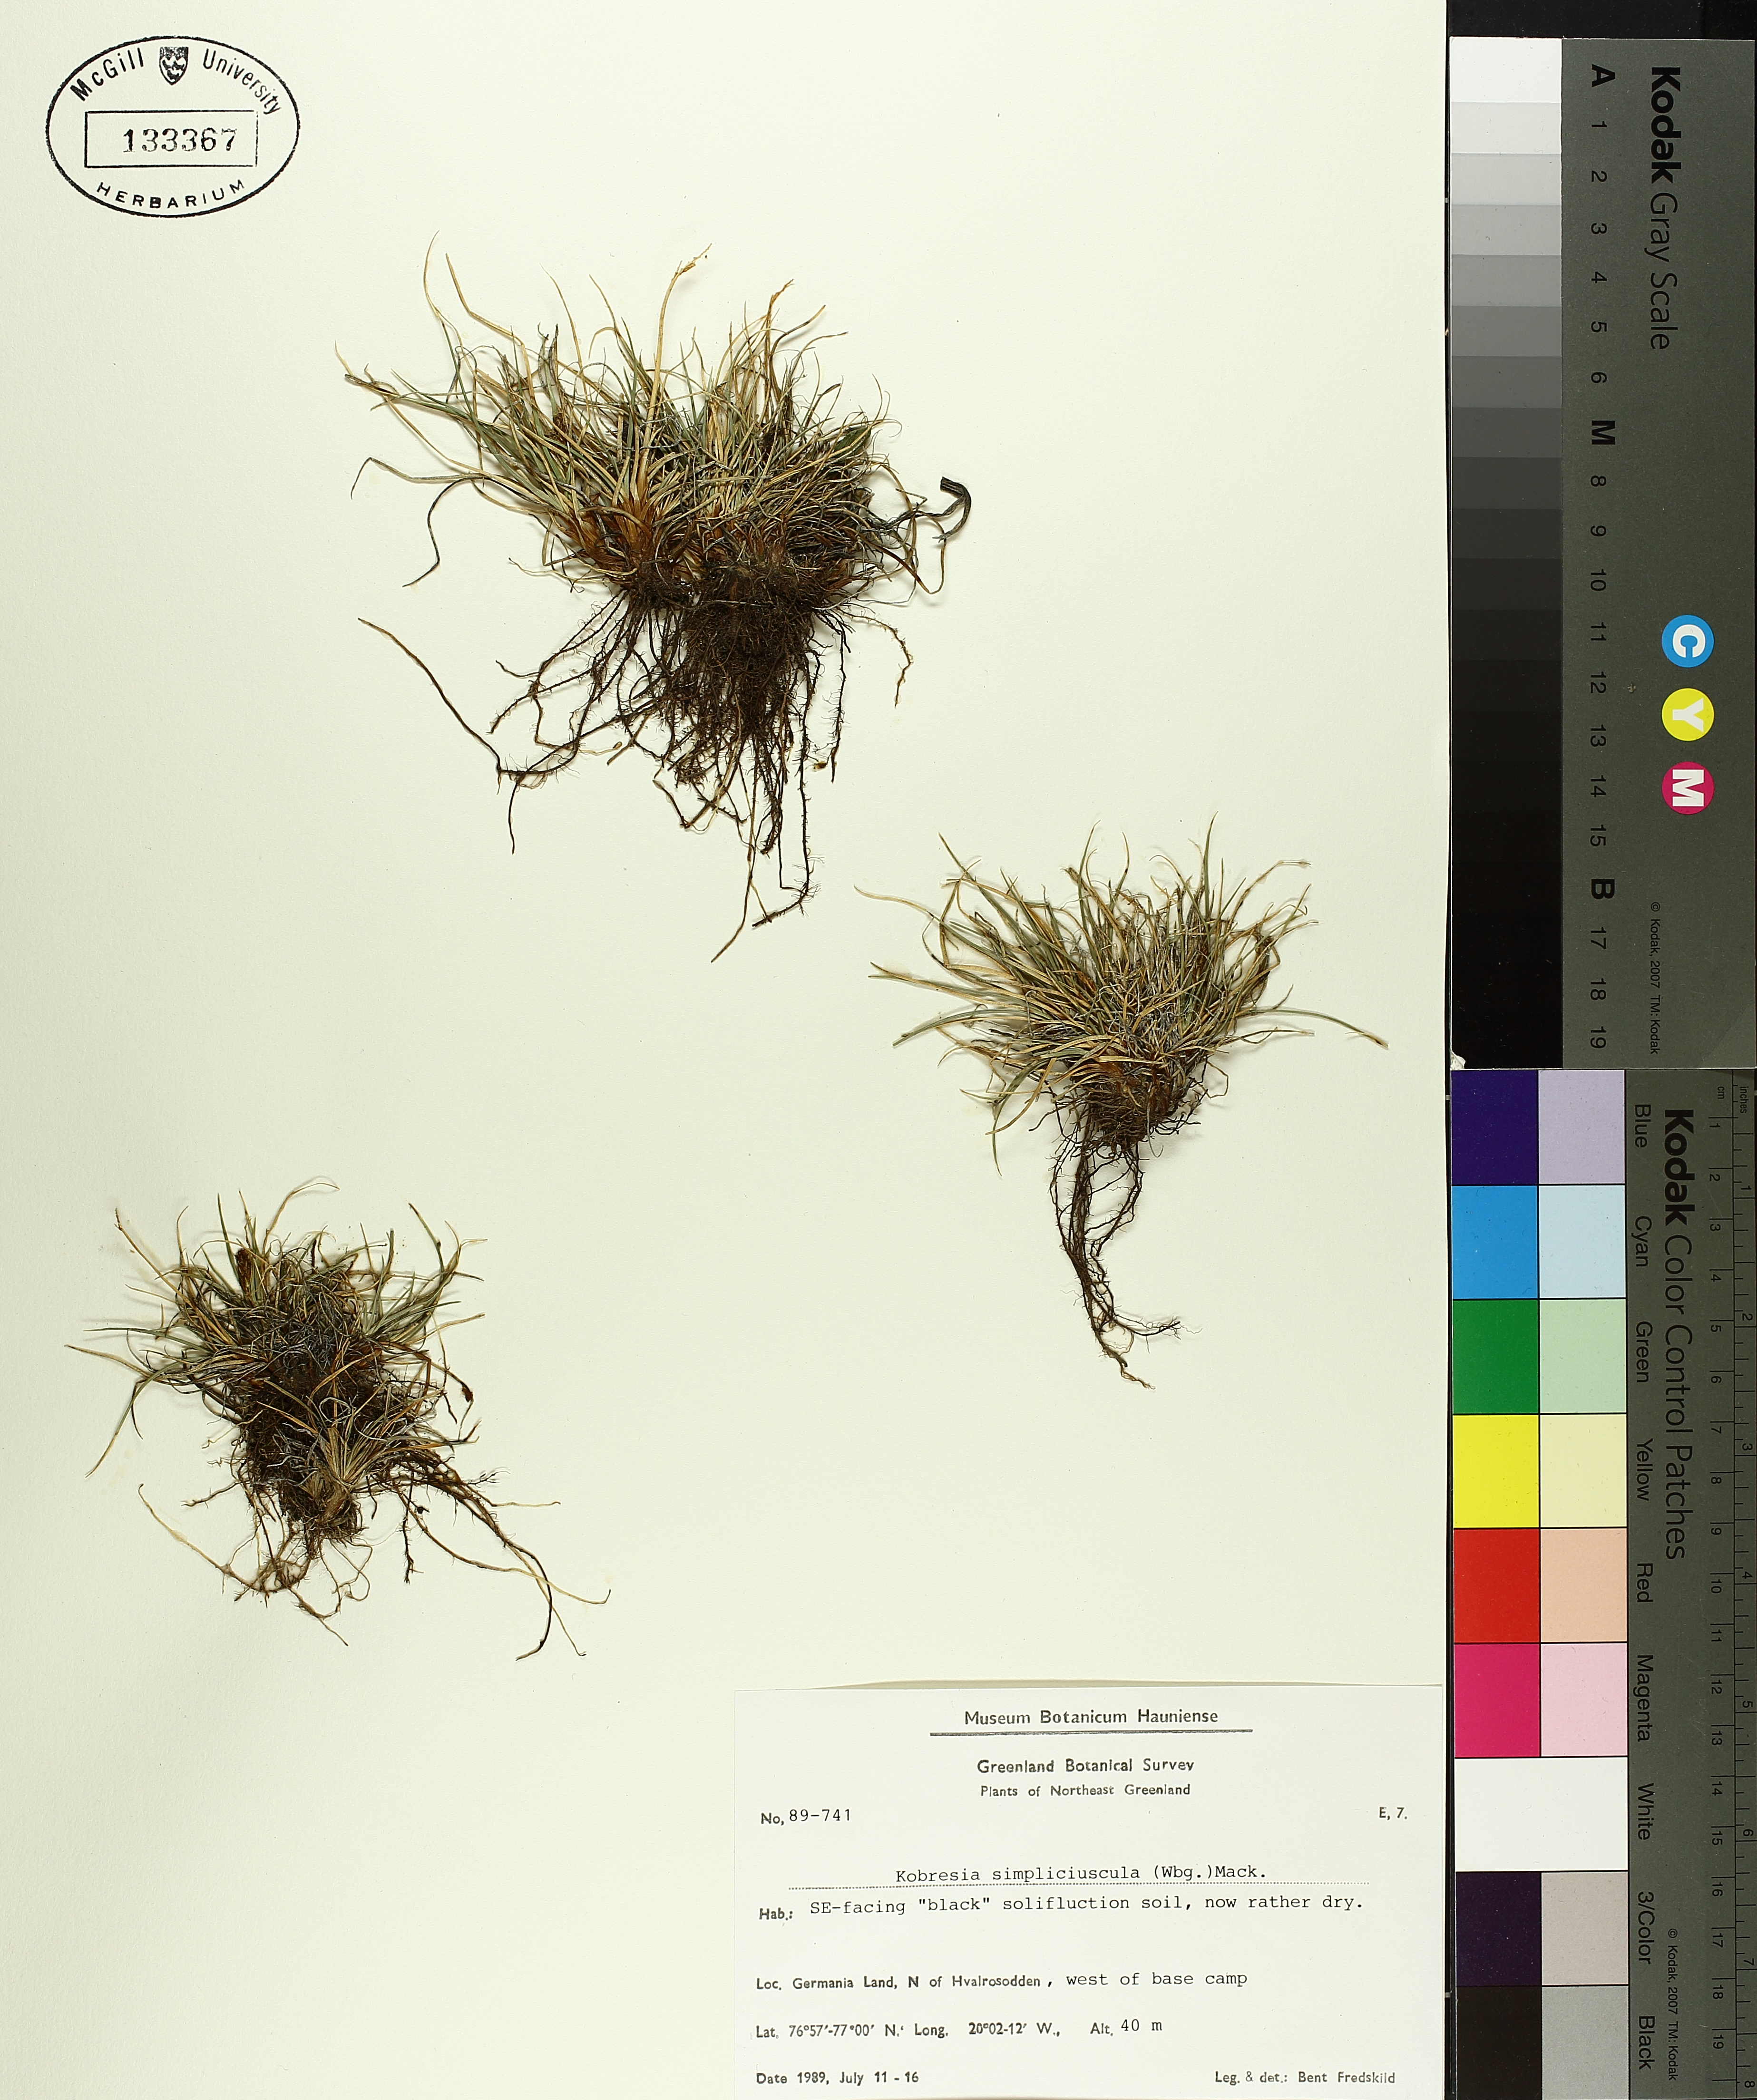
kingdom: Plantae
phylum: Tracheophyta
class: Liliopsida
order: Poales
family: Cyperaceae
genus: Carex
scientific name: Carex simpliciuscula
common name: Simple bog sedge
